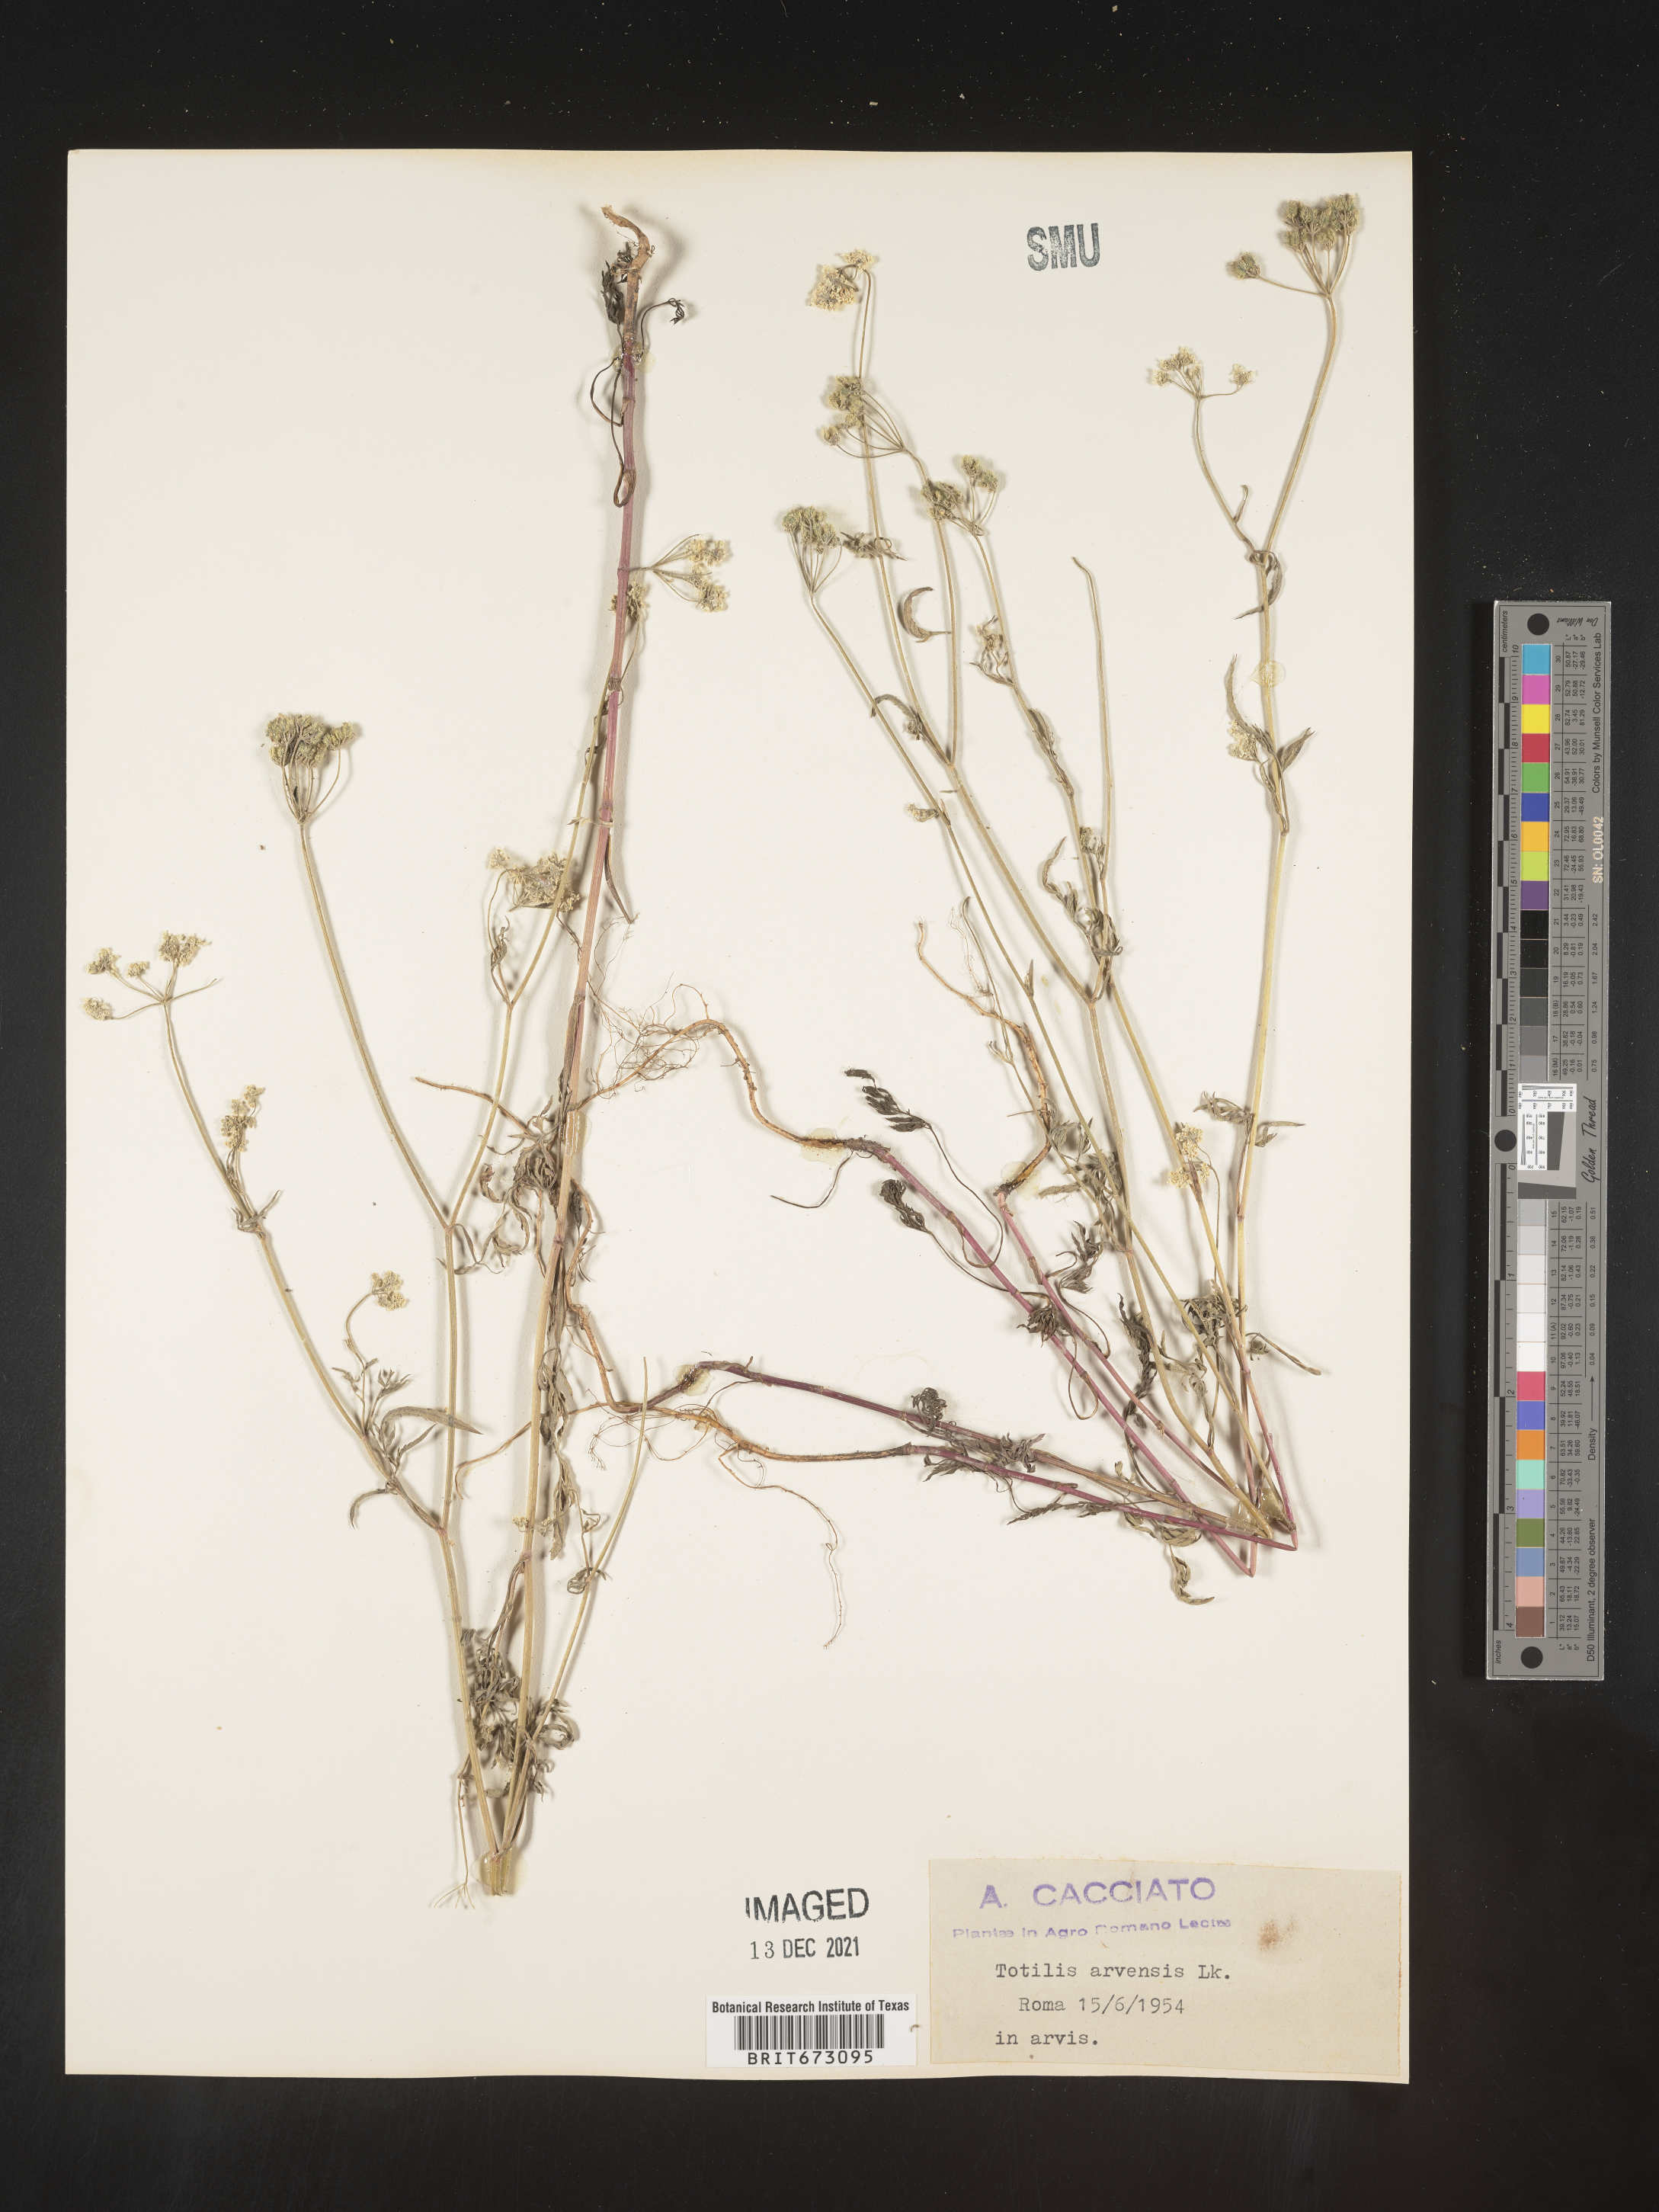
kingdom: Plantae
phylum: Tracheophyta
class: Magnoliopsida
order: Apiales
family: Apiaceae
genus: Torilis
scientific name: Torilis
